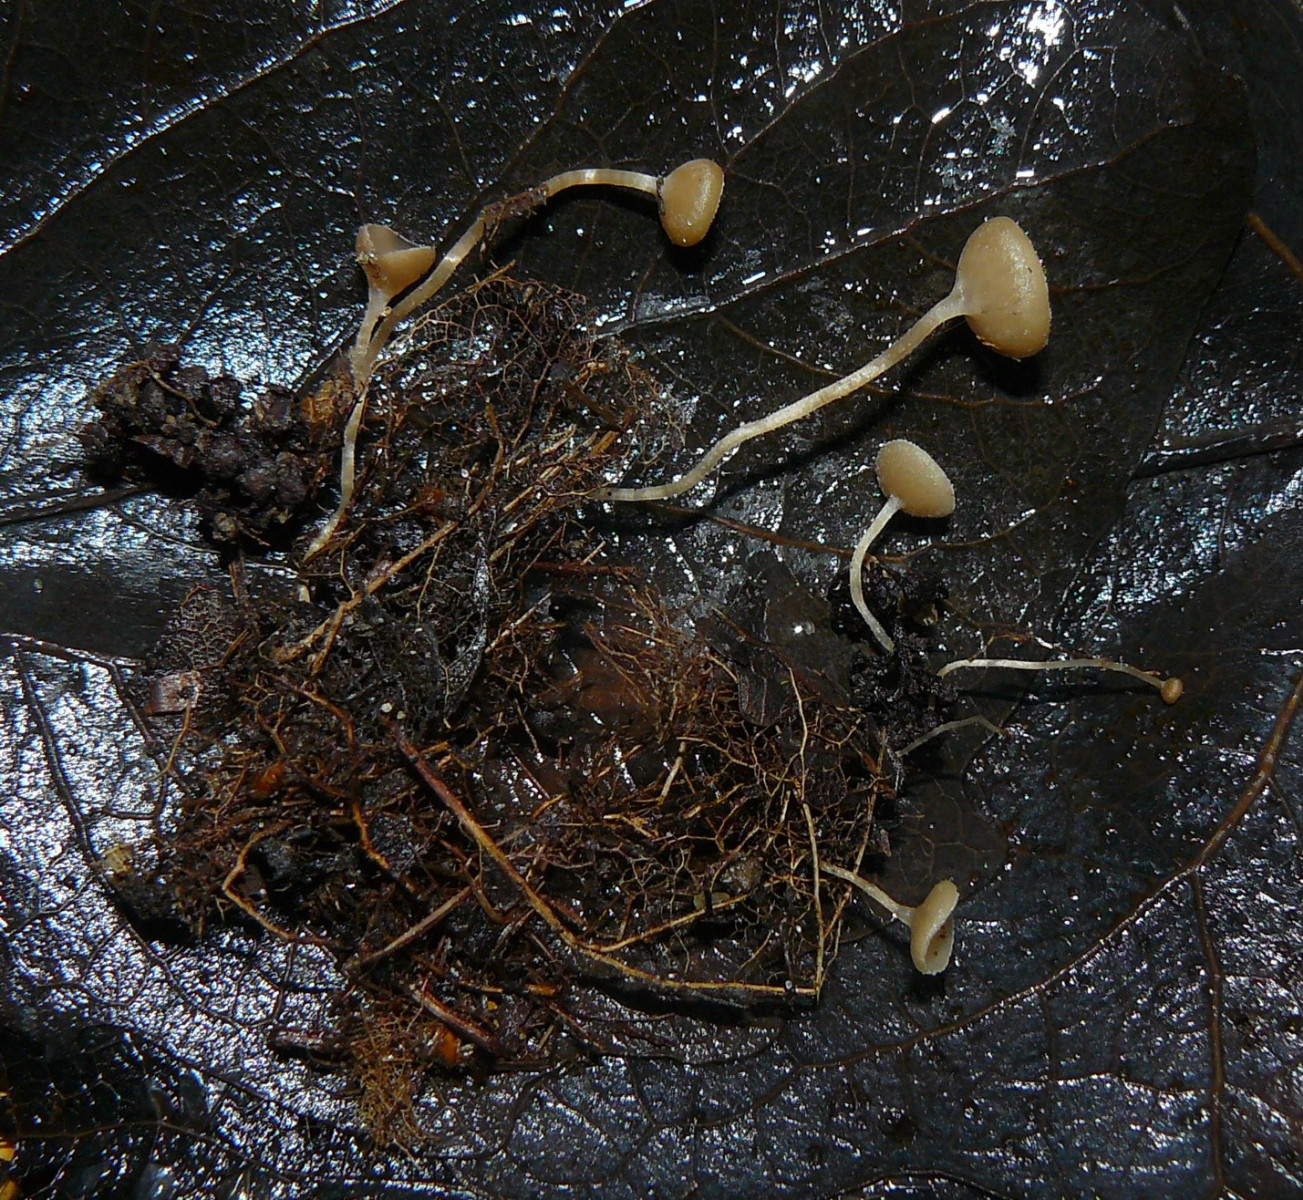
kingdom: Fungi
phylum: Ascomycota
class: Leotiomycetes
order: Helotiales
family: Sclerotiniaceae
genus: Ciboria
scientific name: Ciboria amentacea
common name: ellerakle-knoldskive
